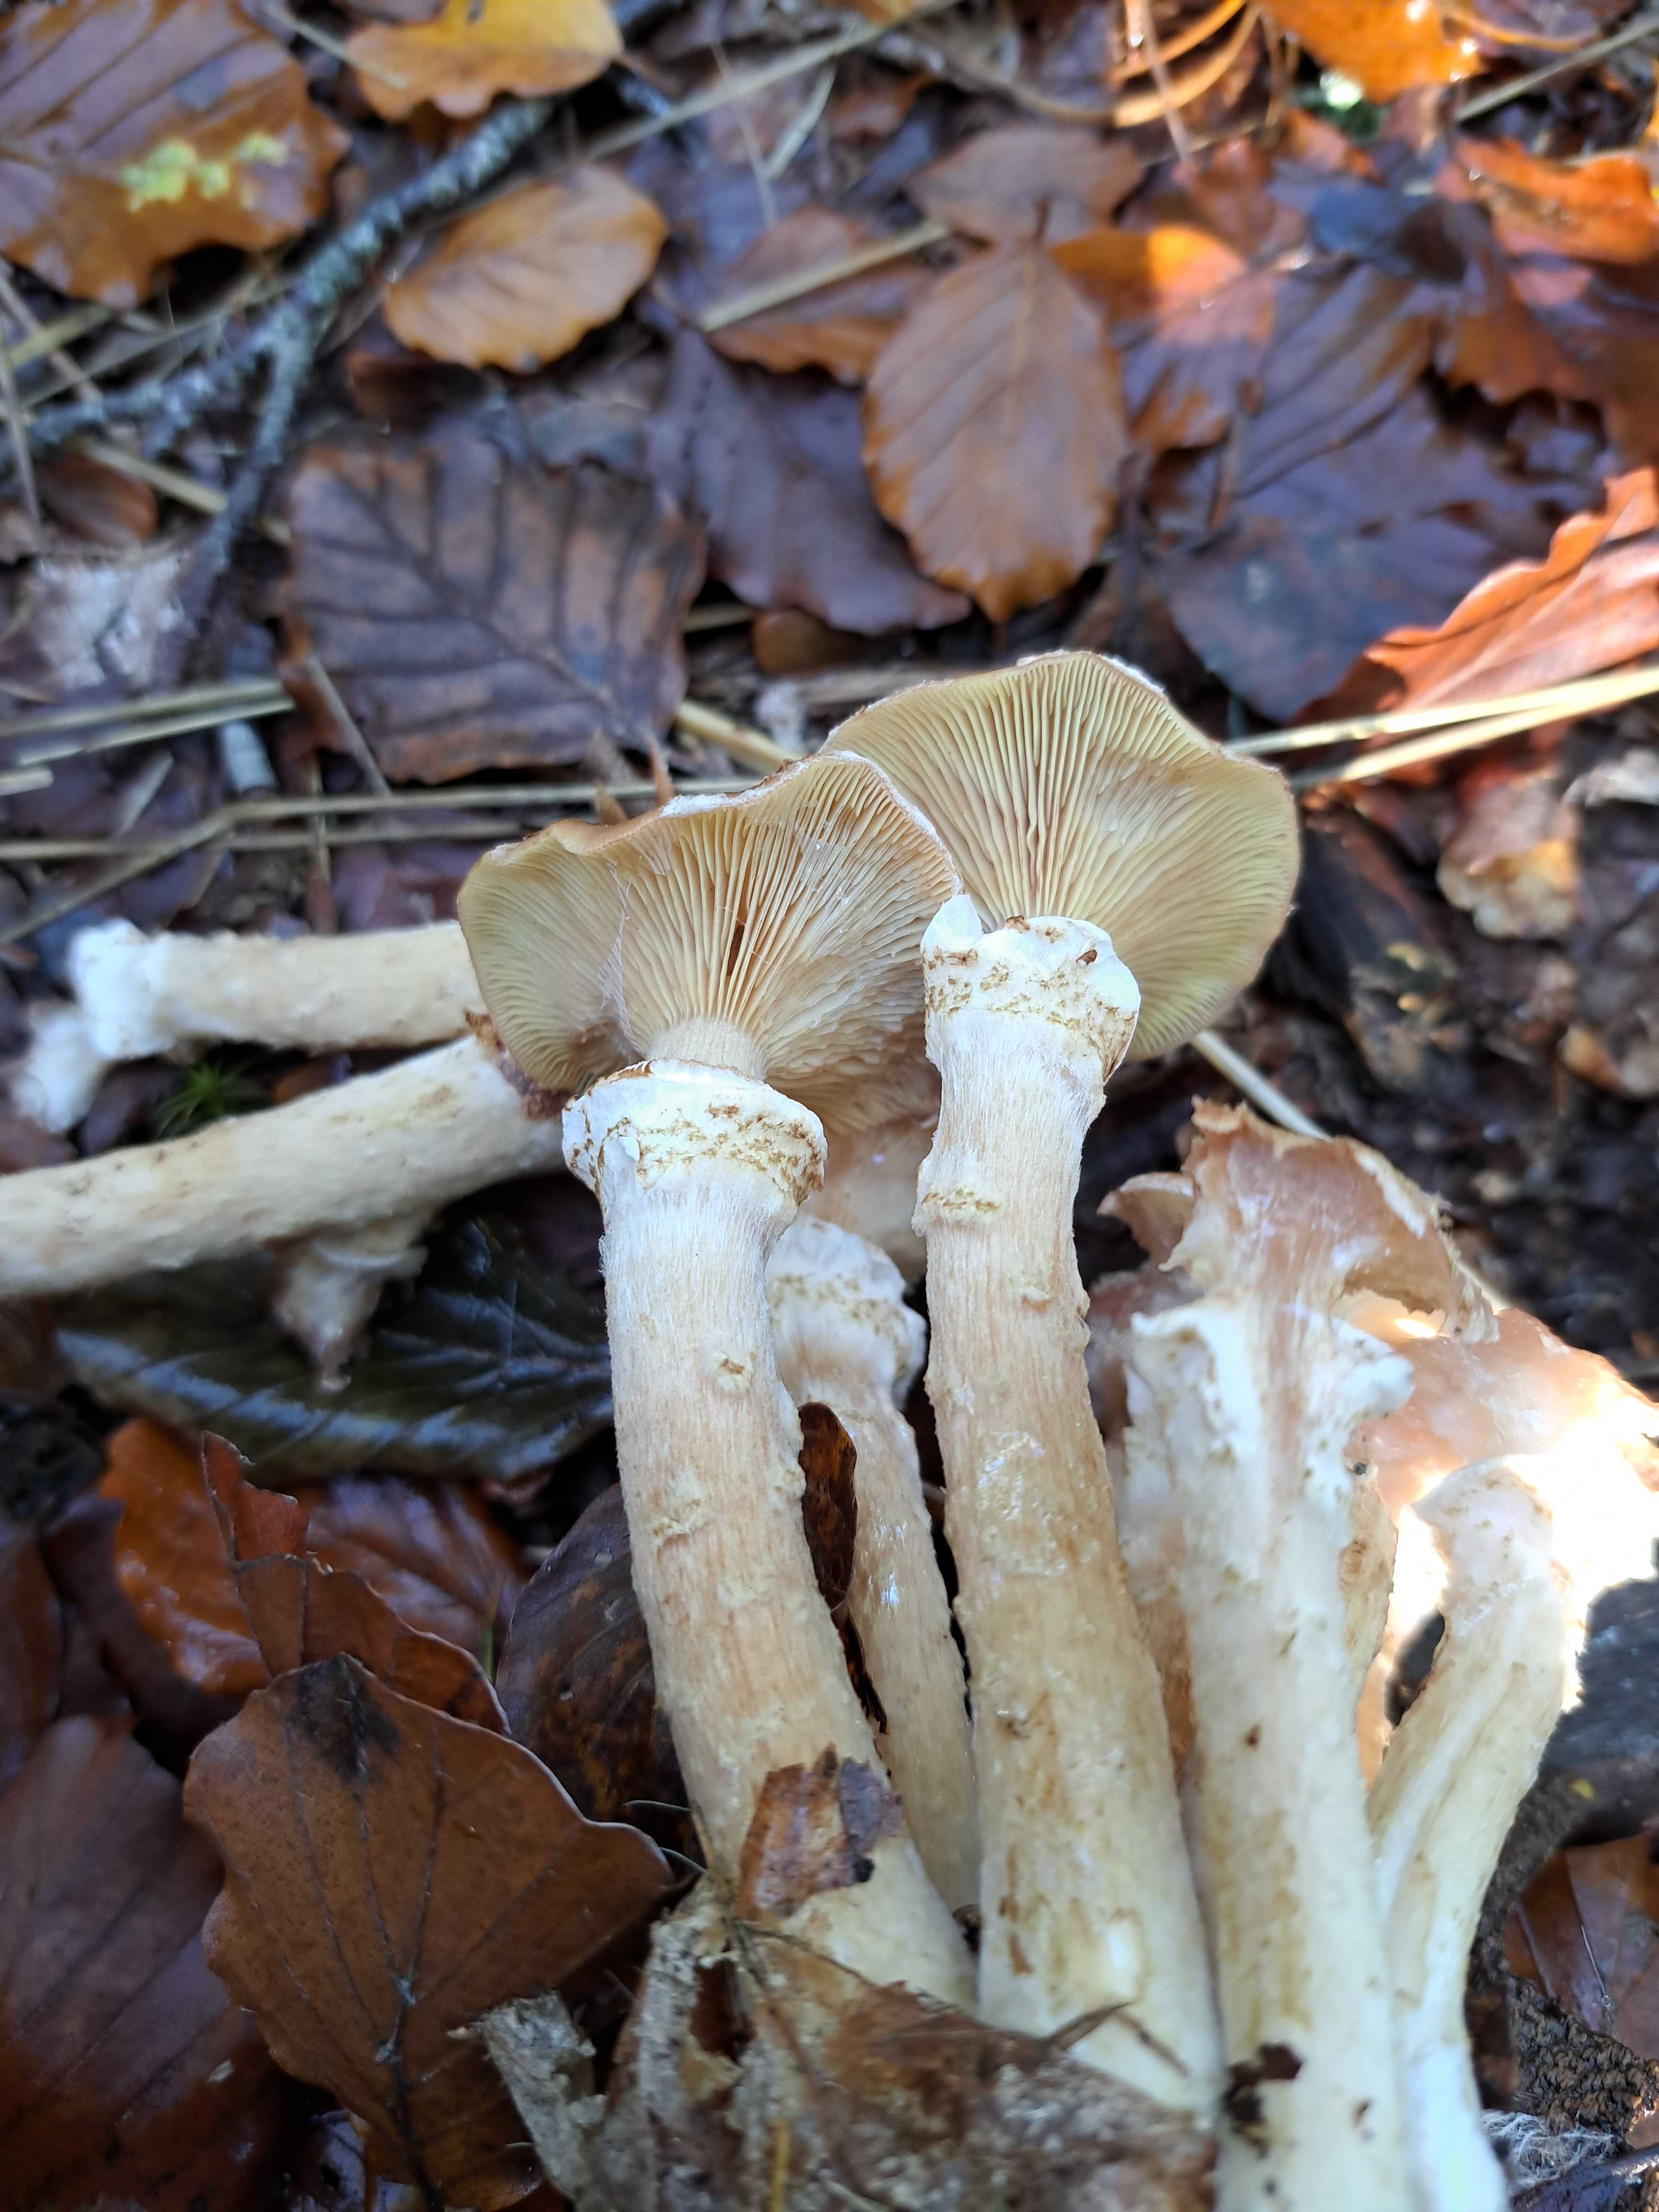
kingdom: Fungi
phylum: Basidiomycota
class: Agaricomycetes
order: Agaricales
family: Physalacriaceae
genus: Armillaria
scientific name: Armillaria ostoyae
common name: mørk honningsvamp
